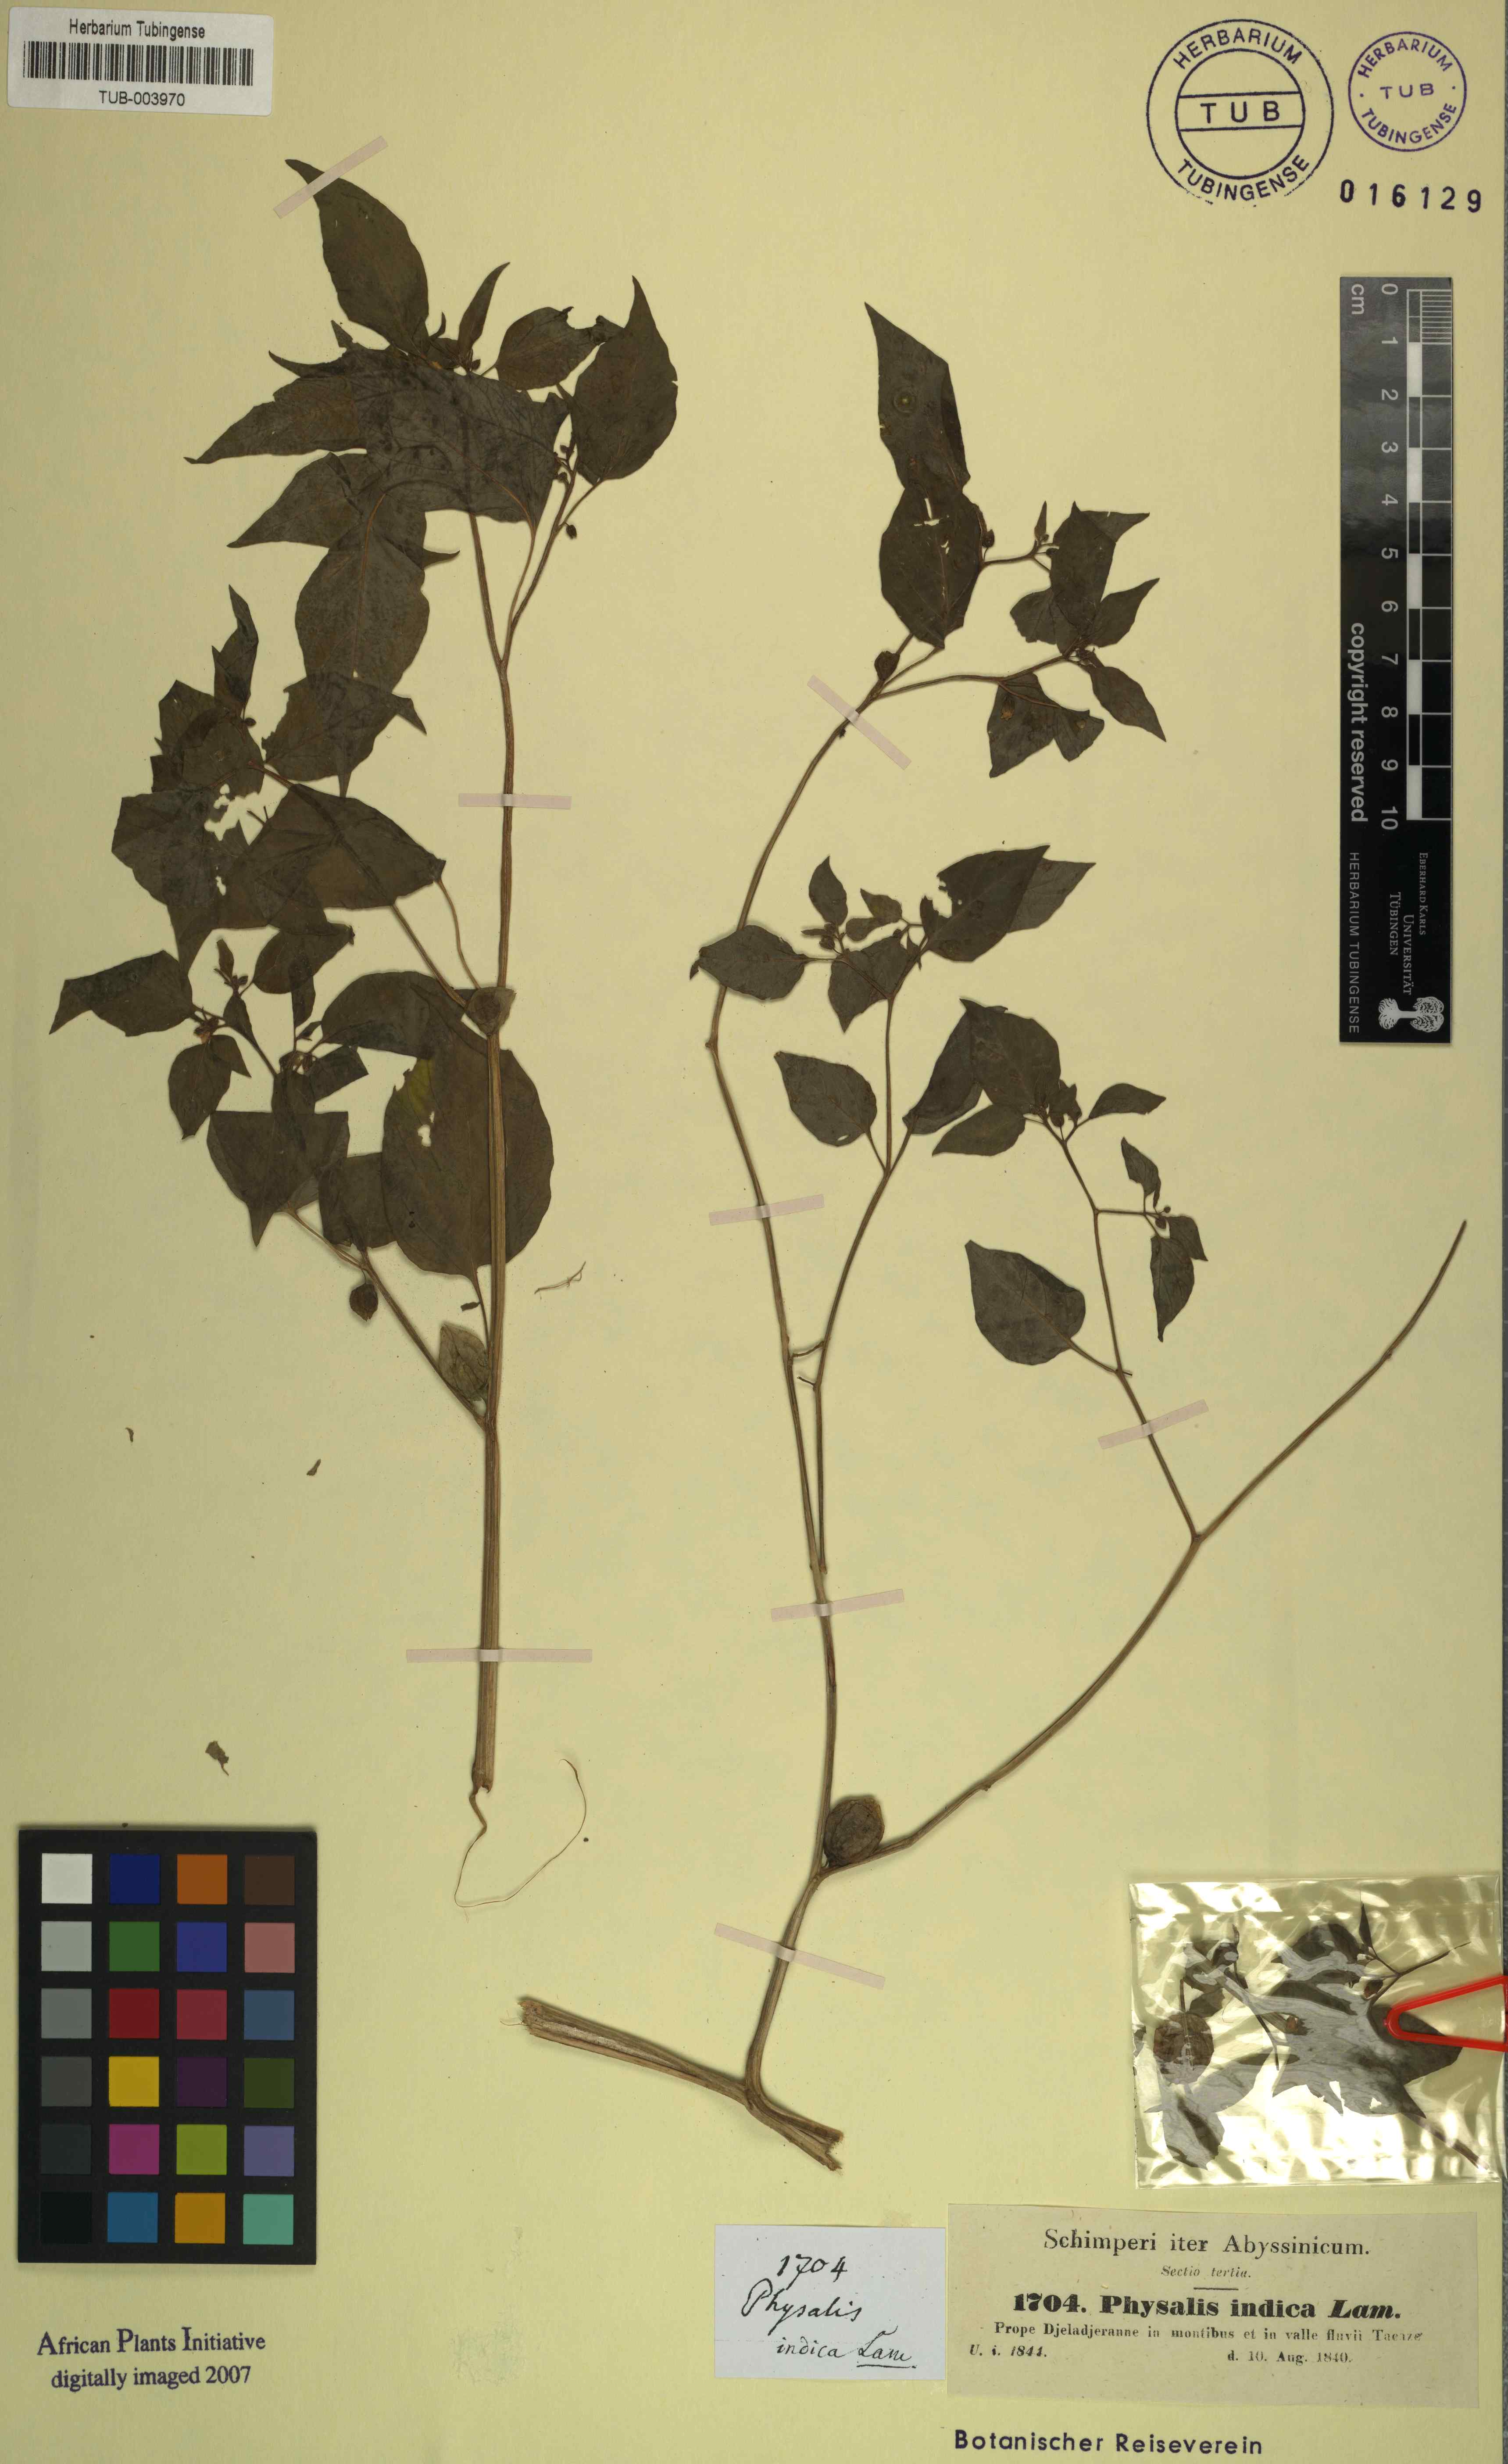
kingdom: Plantae
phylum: Tracheophyta
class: Magnoliopsida
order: Solanales
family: Solanaceae
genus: Physalis
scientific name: Physalis angulata
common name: Angular winter-cherry
